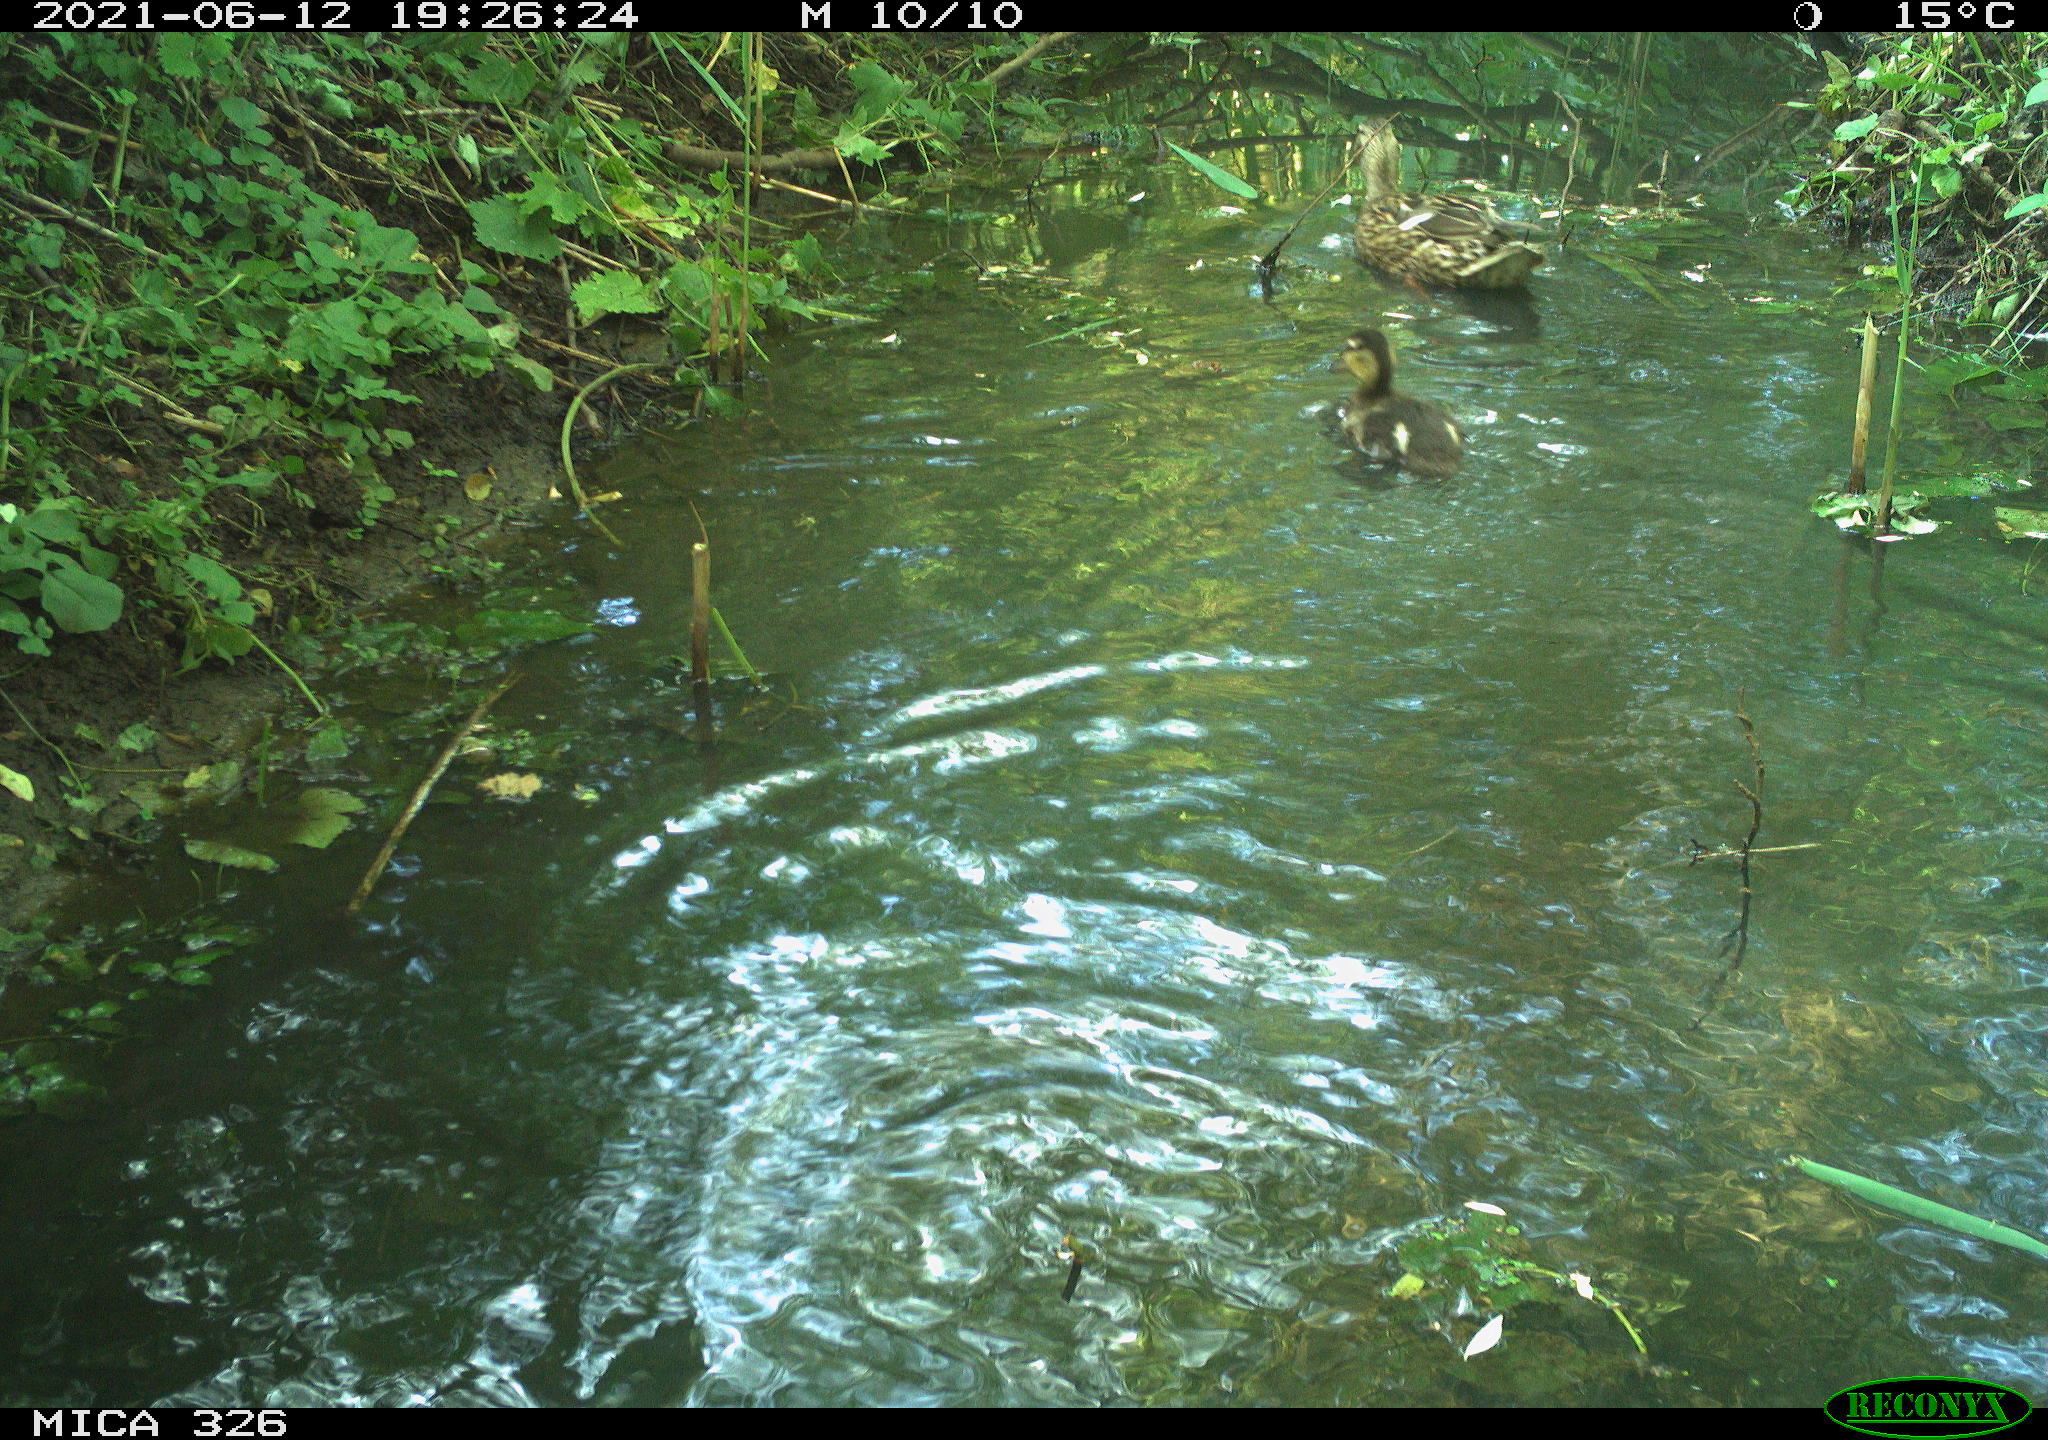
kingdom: Animalia
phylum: Chordata
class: Aves
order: Anseriformes
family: Anatidae
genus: Anas
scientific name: Anas platyrhynchos
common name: Mallard
